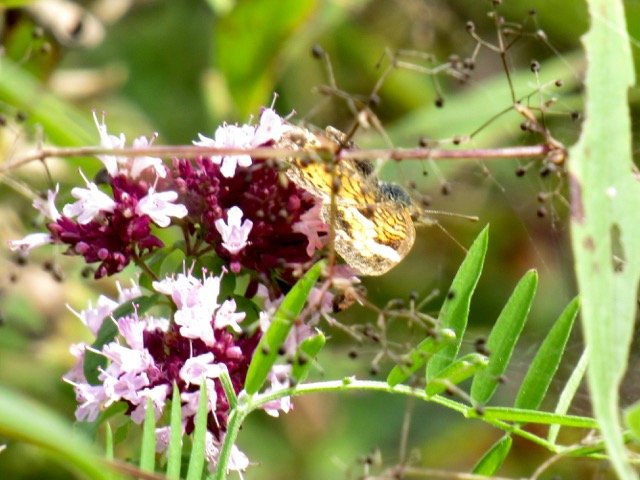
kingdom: Animalia
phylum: Arthropoda
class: Insecta
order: Lepidoptera
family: Nymphalidae
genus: Phyciodes
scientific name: Phyciodes tharos
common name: Pearl Crescent
